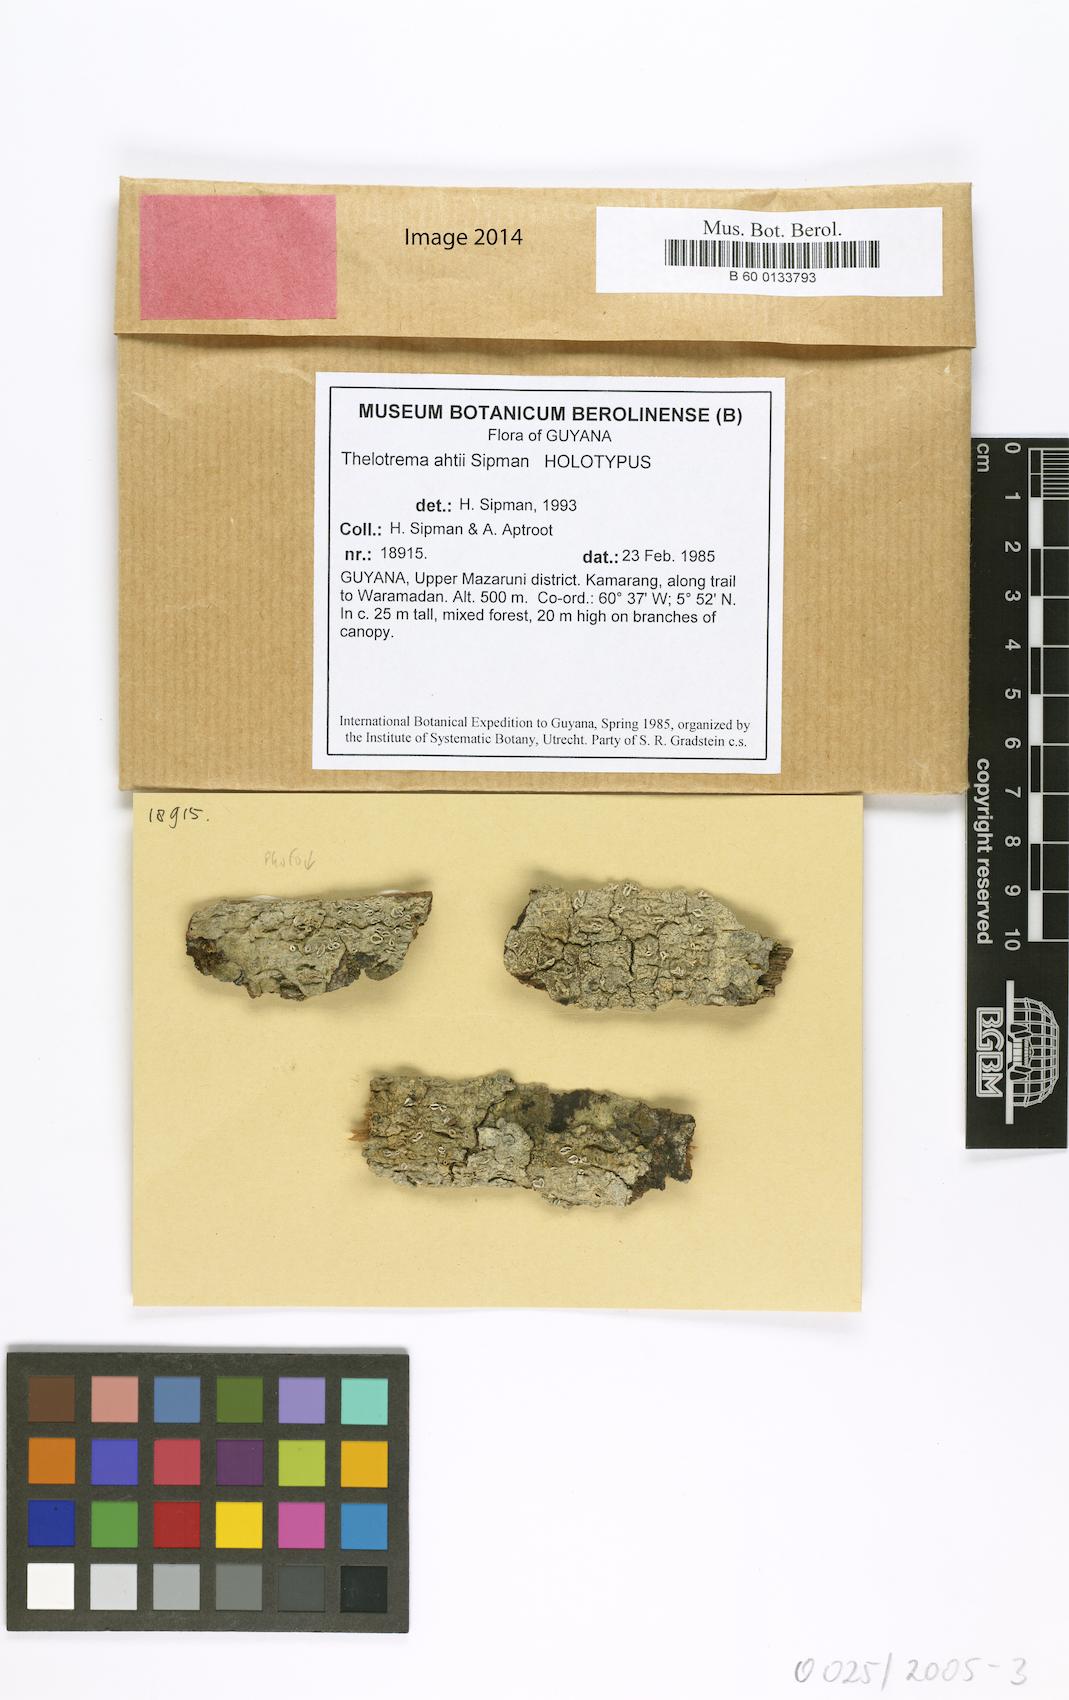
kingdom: Fungi
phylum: Ascomycota
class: Lecanoromycetes
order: Ostropales
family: Graphidaceae
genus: Thelotrema
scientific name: Thelotrema ahtii
